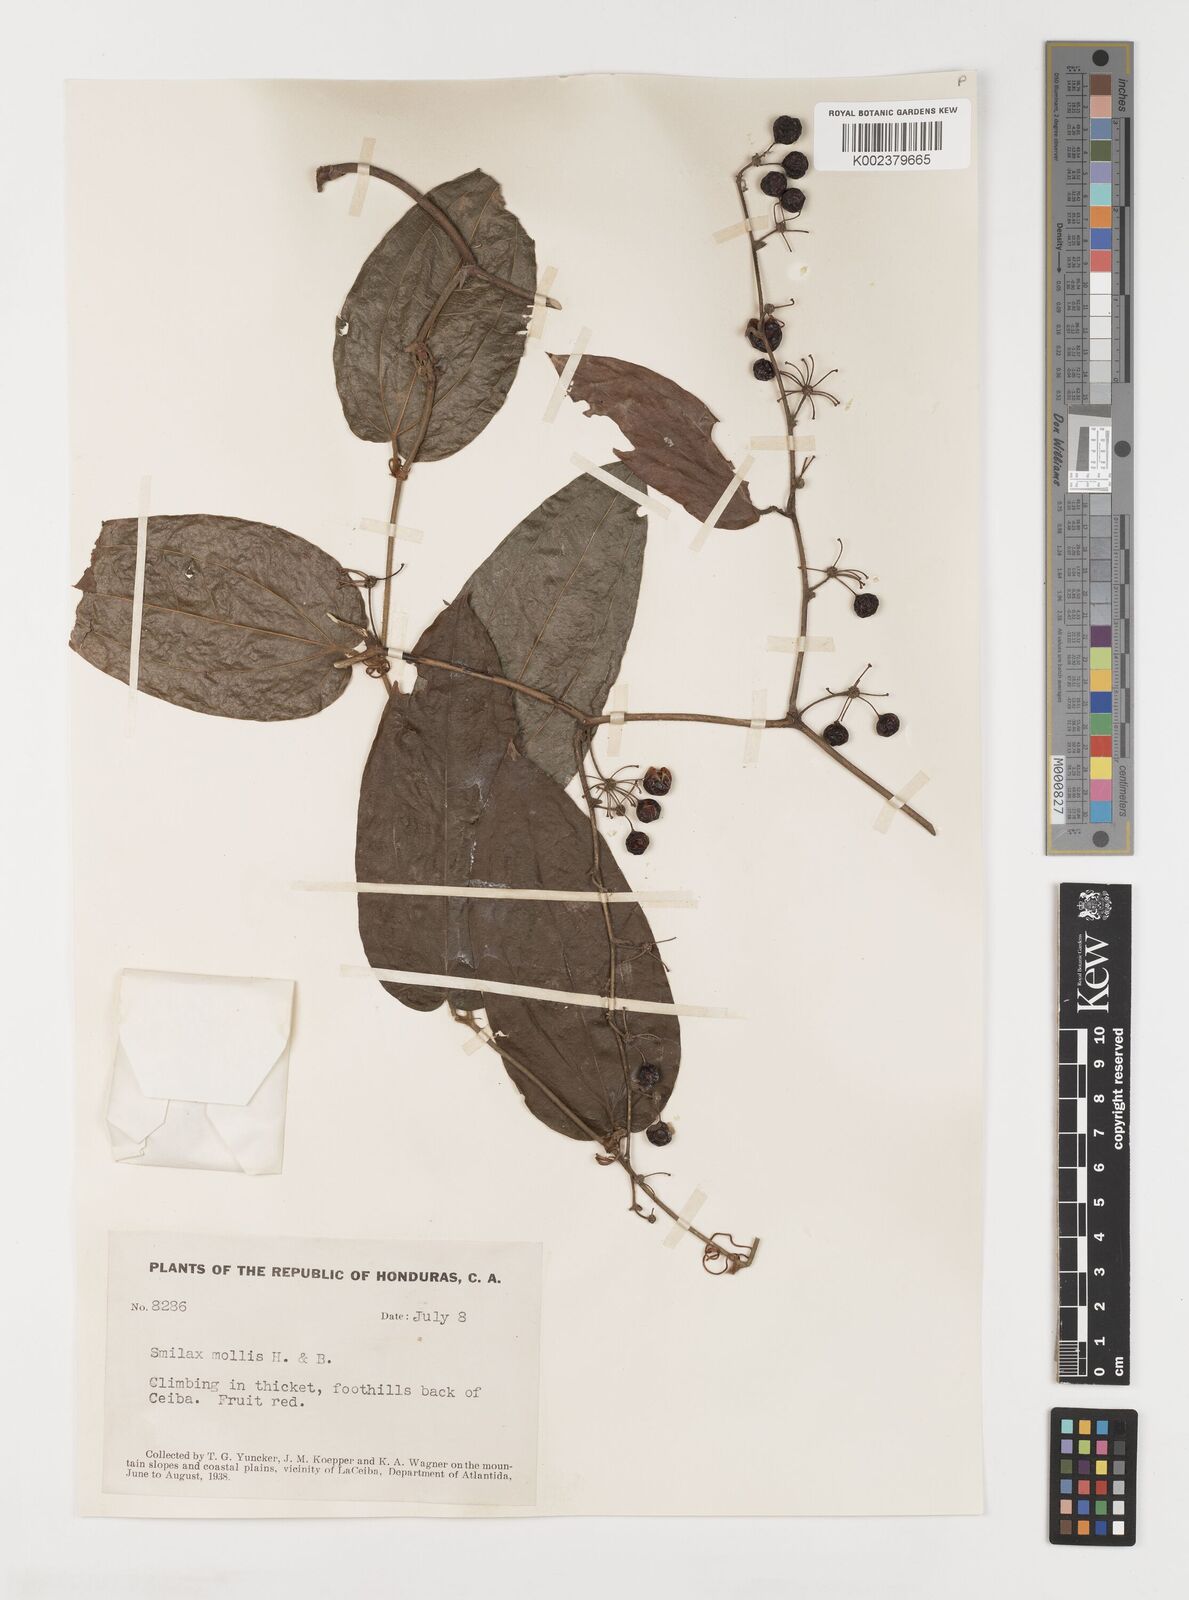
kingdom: Plantae
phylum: Tracheophyta
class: Liliopsida
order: Liliales
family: Smilacaceae
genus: Smilax
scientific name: Smilax mollis
